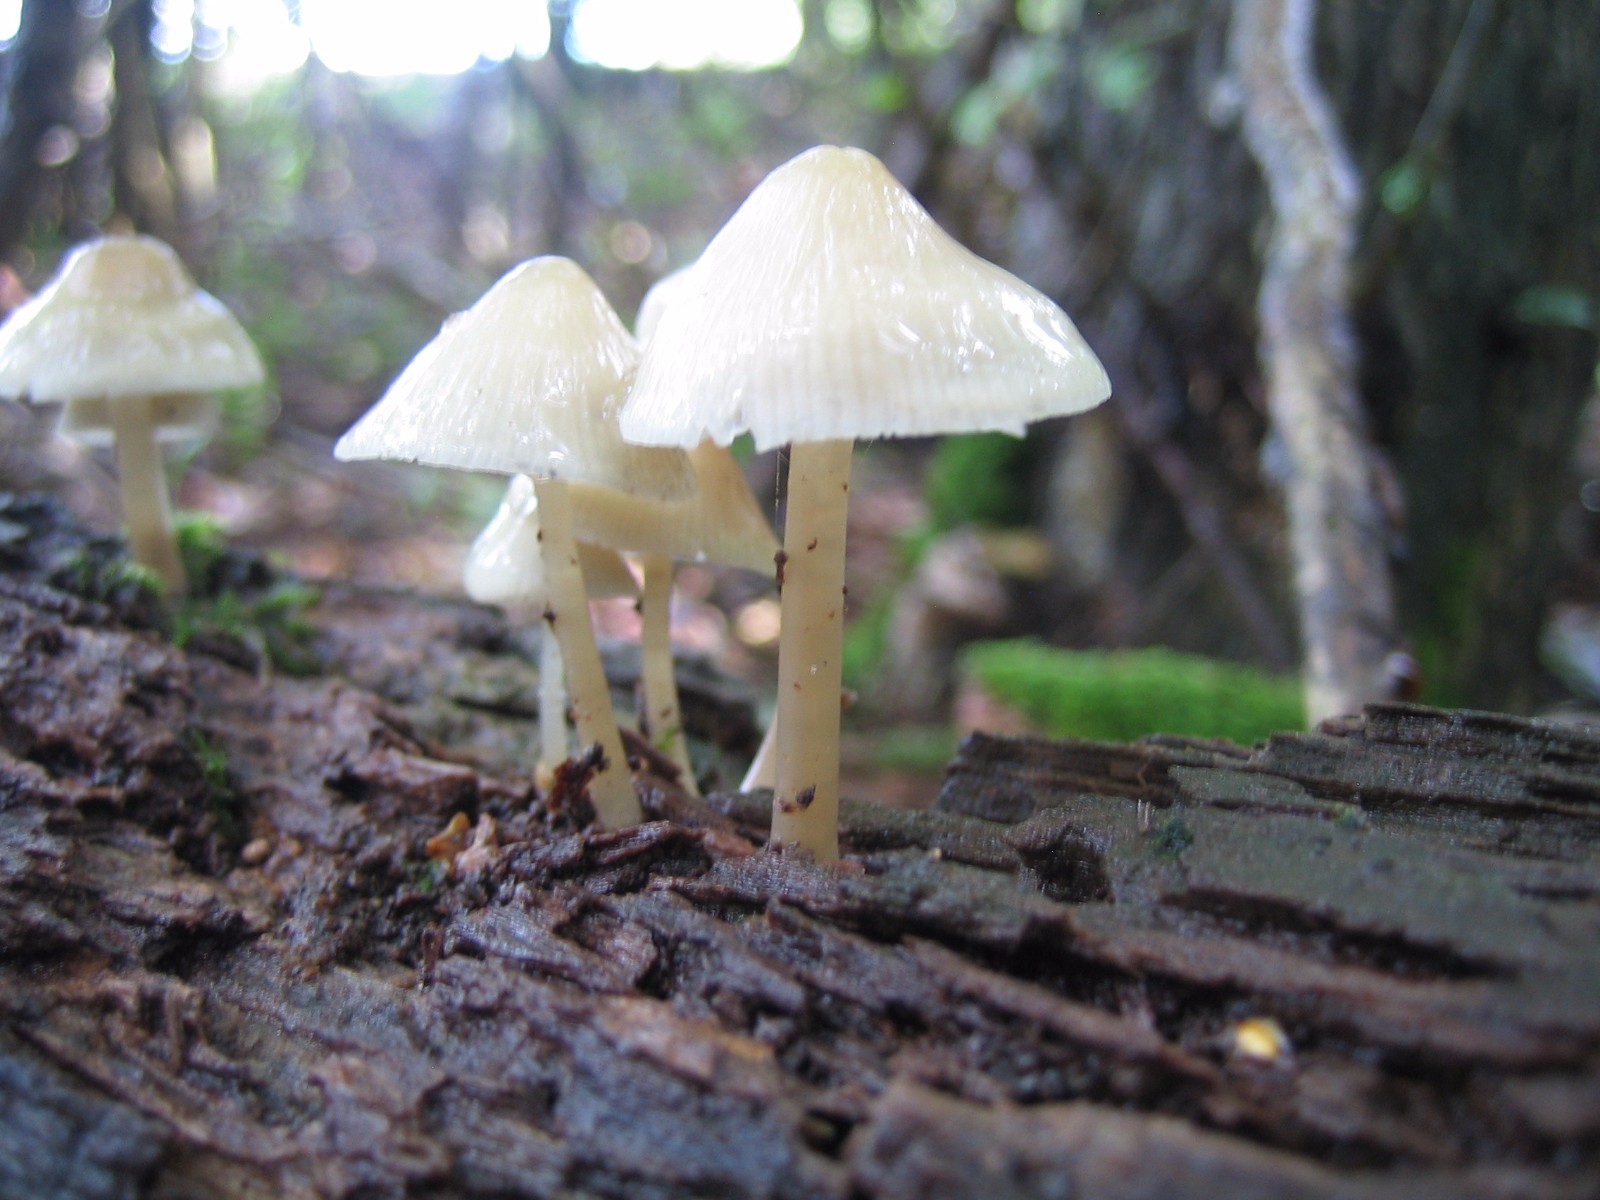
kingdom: Fungi
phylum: Basidiomycota
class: Agaricomycetes
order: Agaricales
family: Mycenaceae
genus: Mycena
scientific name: Mycena galericulata
